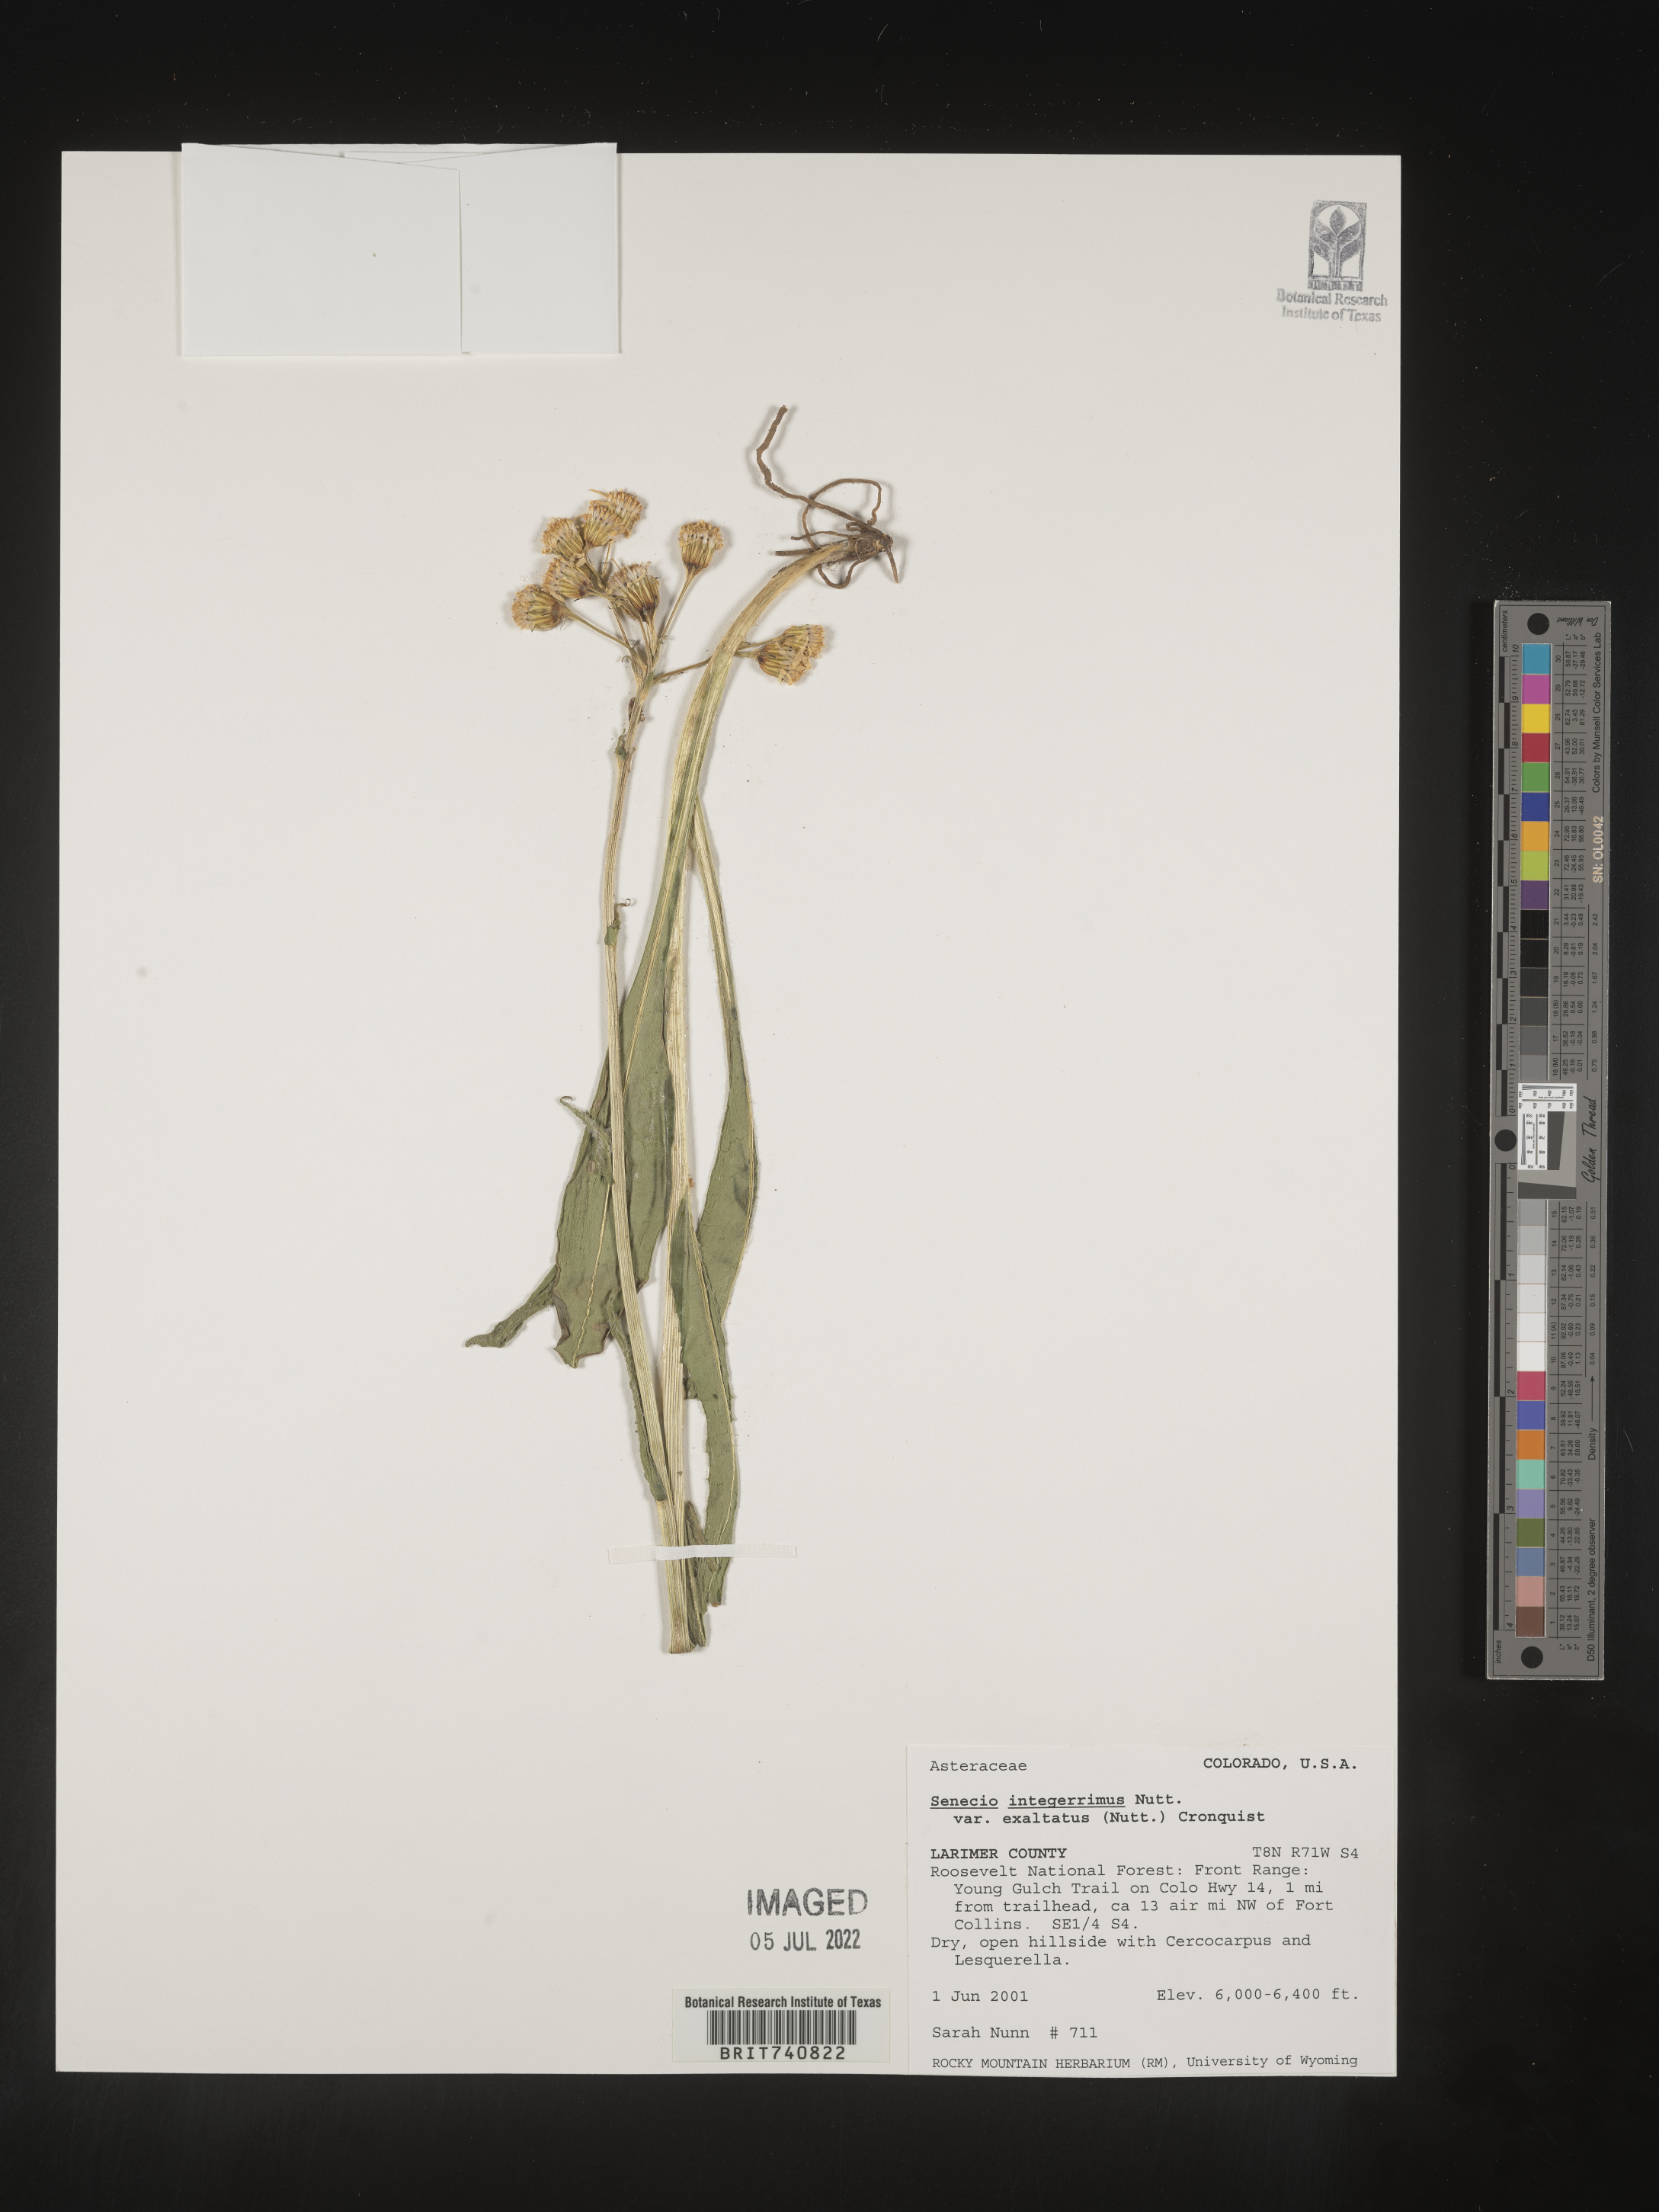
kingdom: Plantae
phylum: Tracheophyta
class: Magnoliopsida
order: Asterales
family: Asteraceae
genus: Senecio
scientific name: Senecio integerrimus
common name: Gaugeplant
